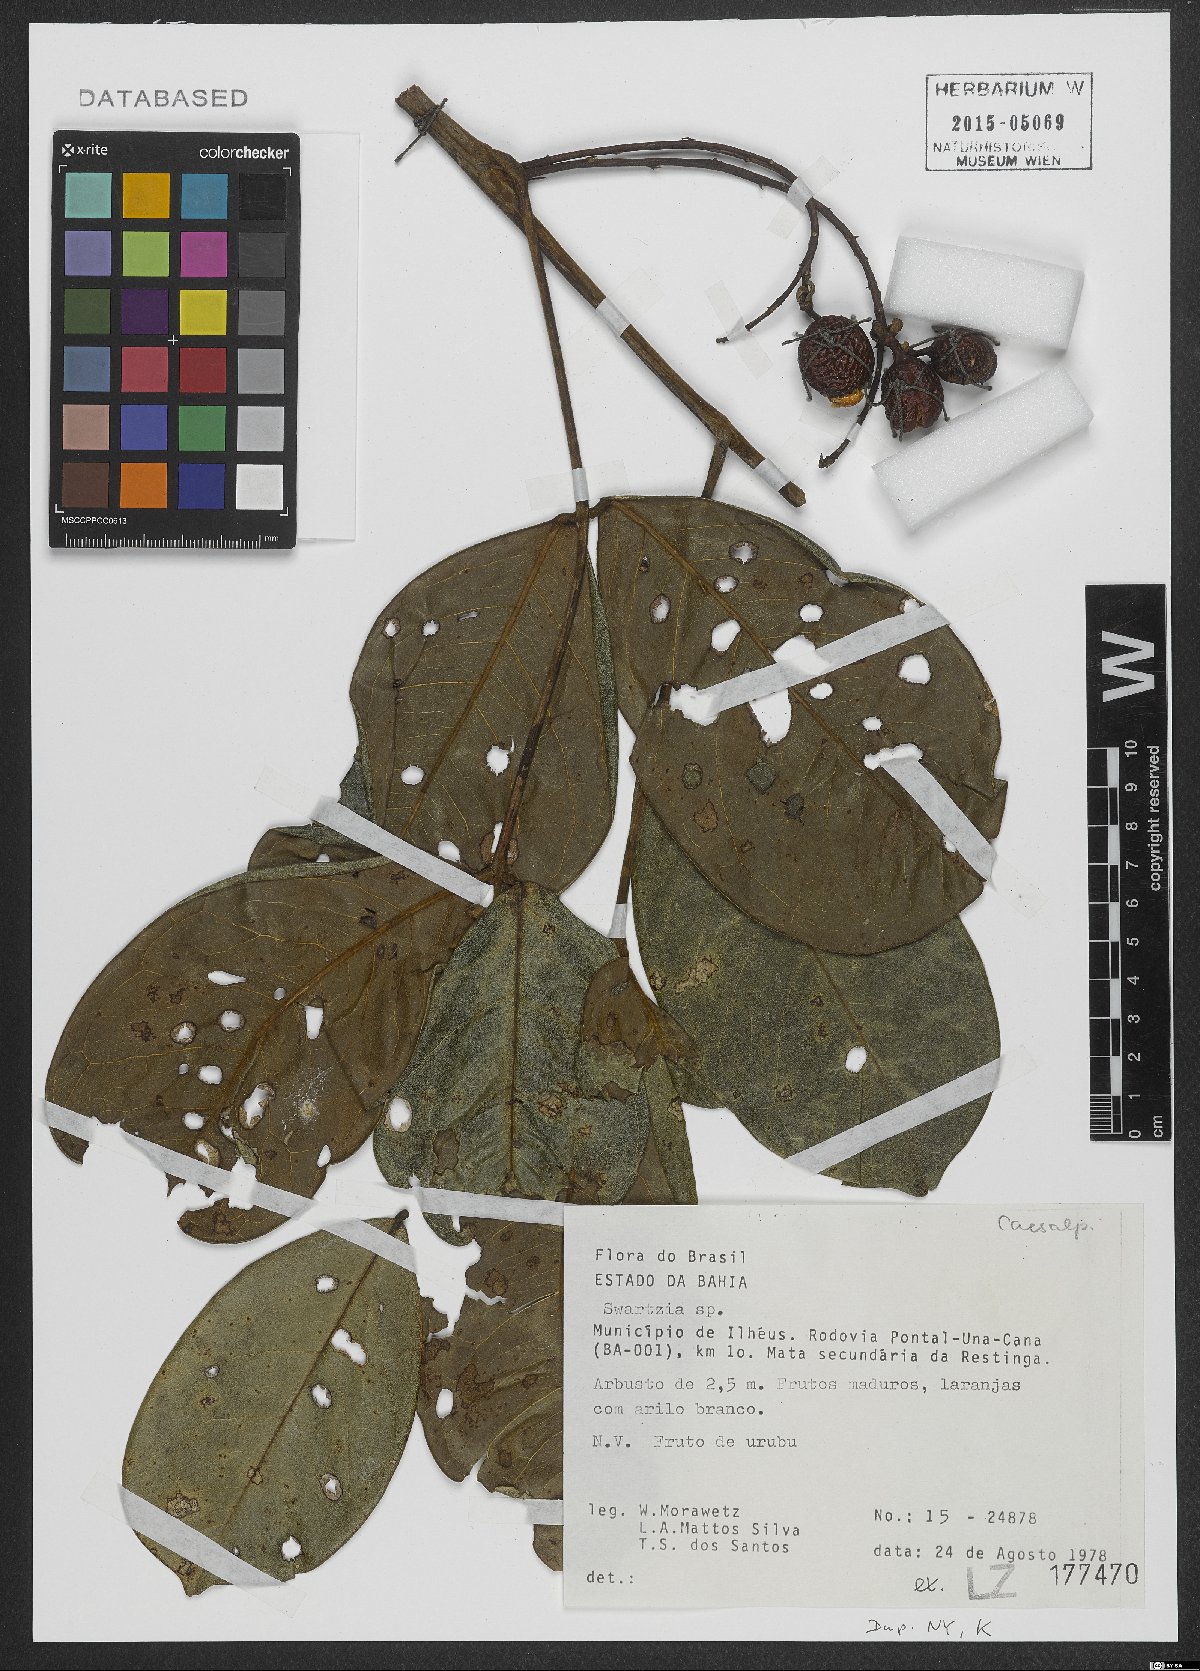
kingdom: Plantae
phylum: Tracheophyta
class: Magnoliopsida
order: Fabales
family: Fabaceae
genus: Swartzia
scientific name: Swartzia
